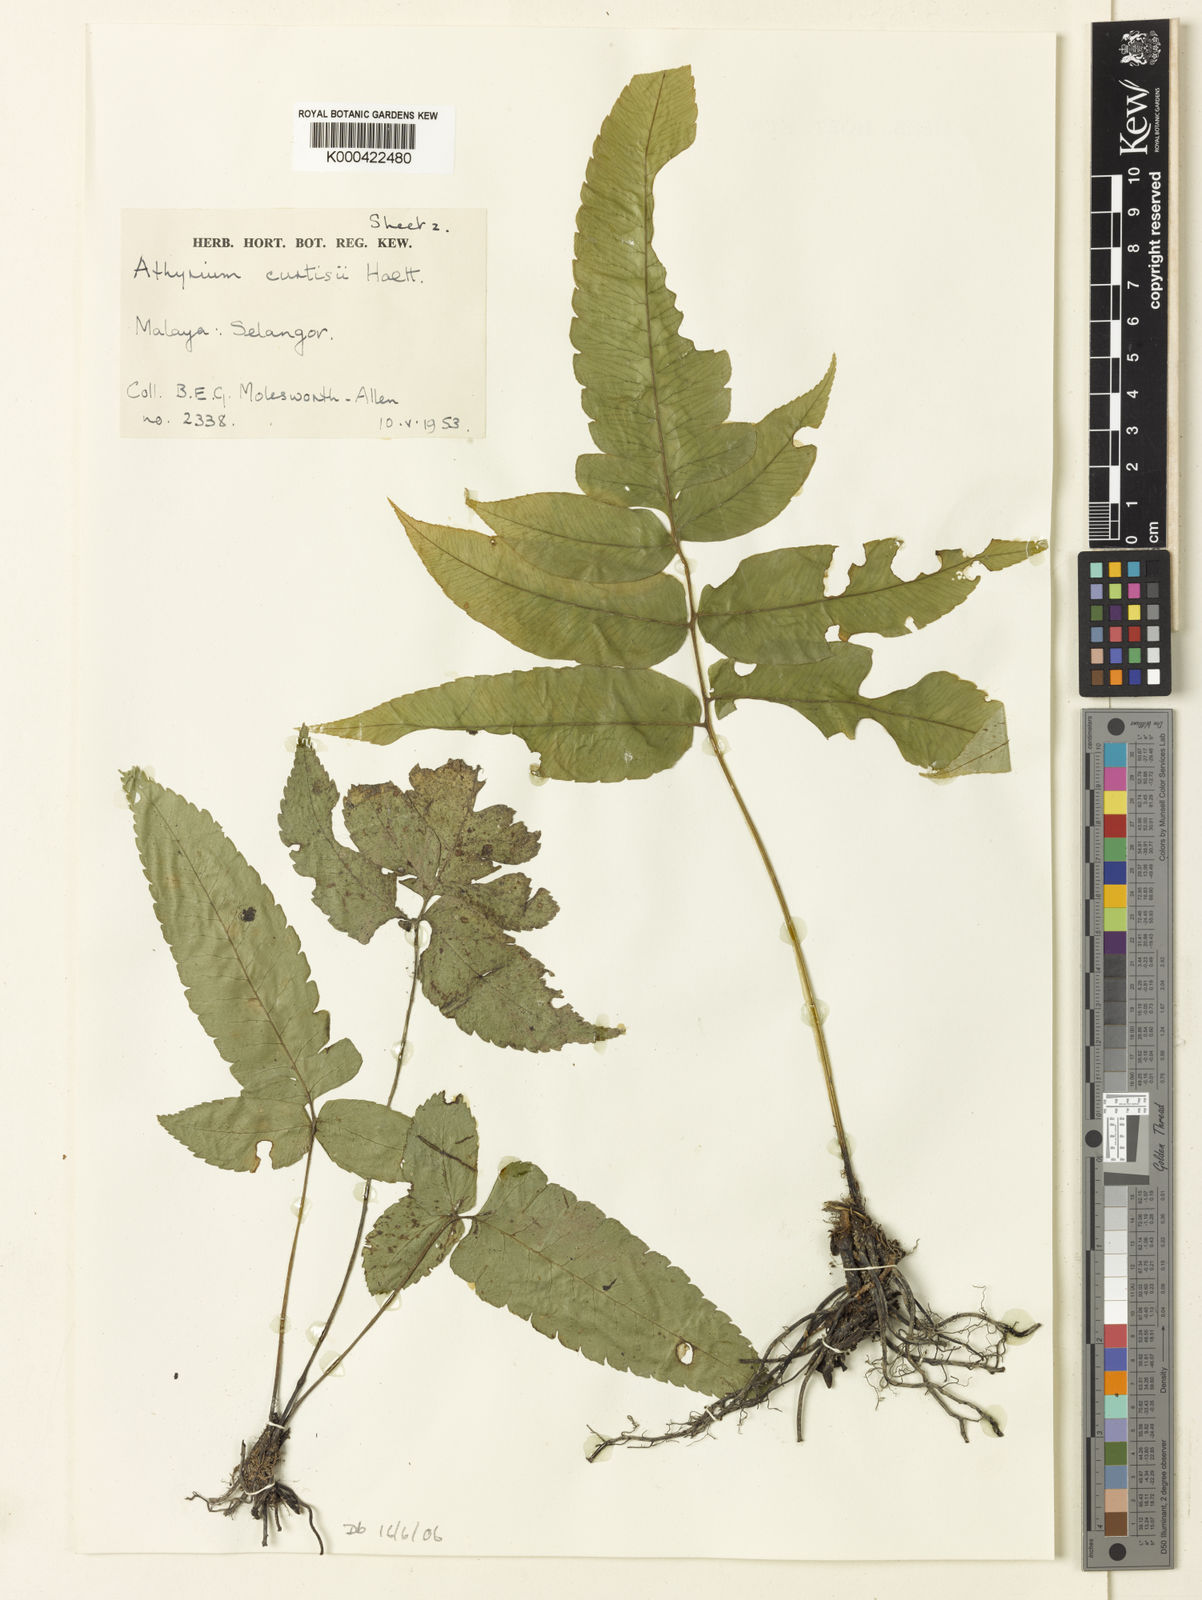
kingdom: Plantae
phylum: Tracheophyta
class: Polypodiopsida
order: Polypodiales
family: Athyriaceae
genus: Diplazium
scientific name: Diplazium curtisii
